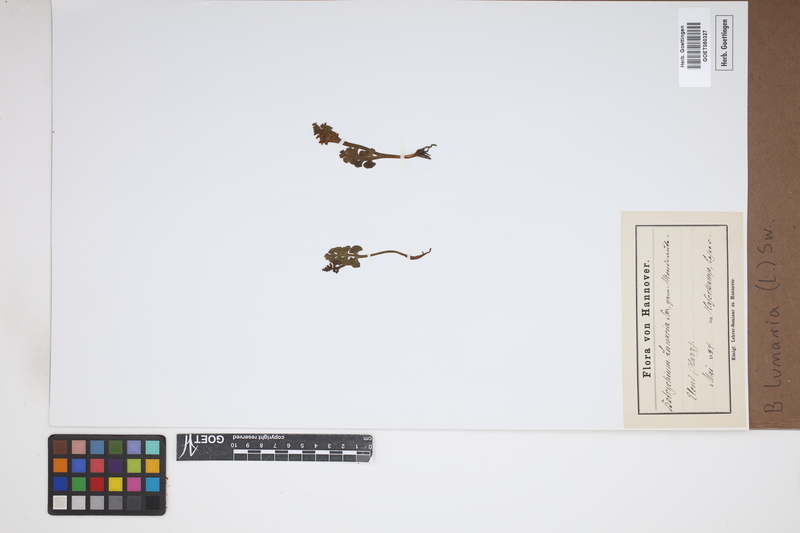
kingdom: Plantae
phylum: Tracheophyta
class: Polypodiopsida
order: Ophioglossales
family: Ophioglossaceae
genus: Botrychium
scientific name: Botrychium lunaria
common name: Moonwort
